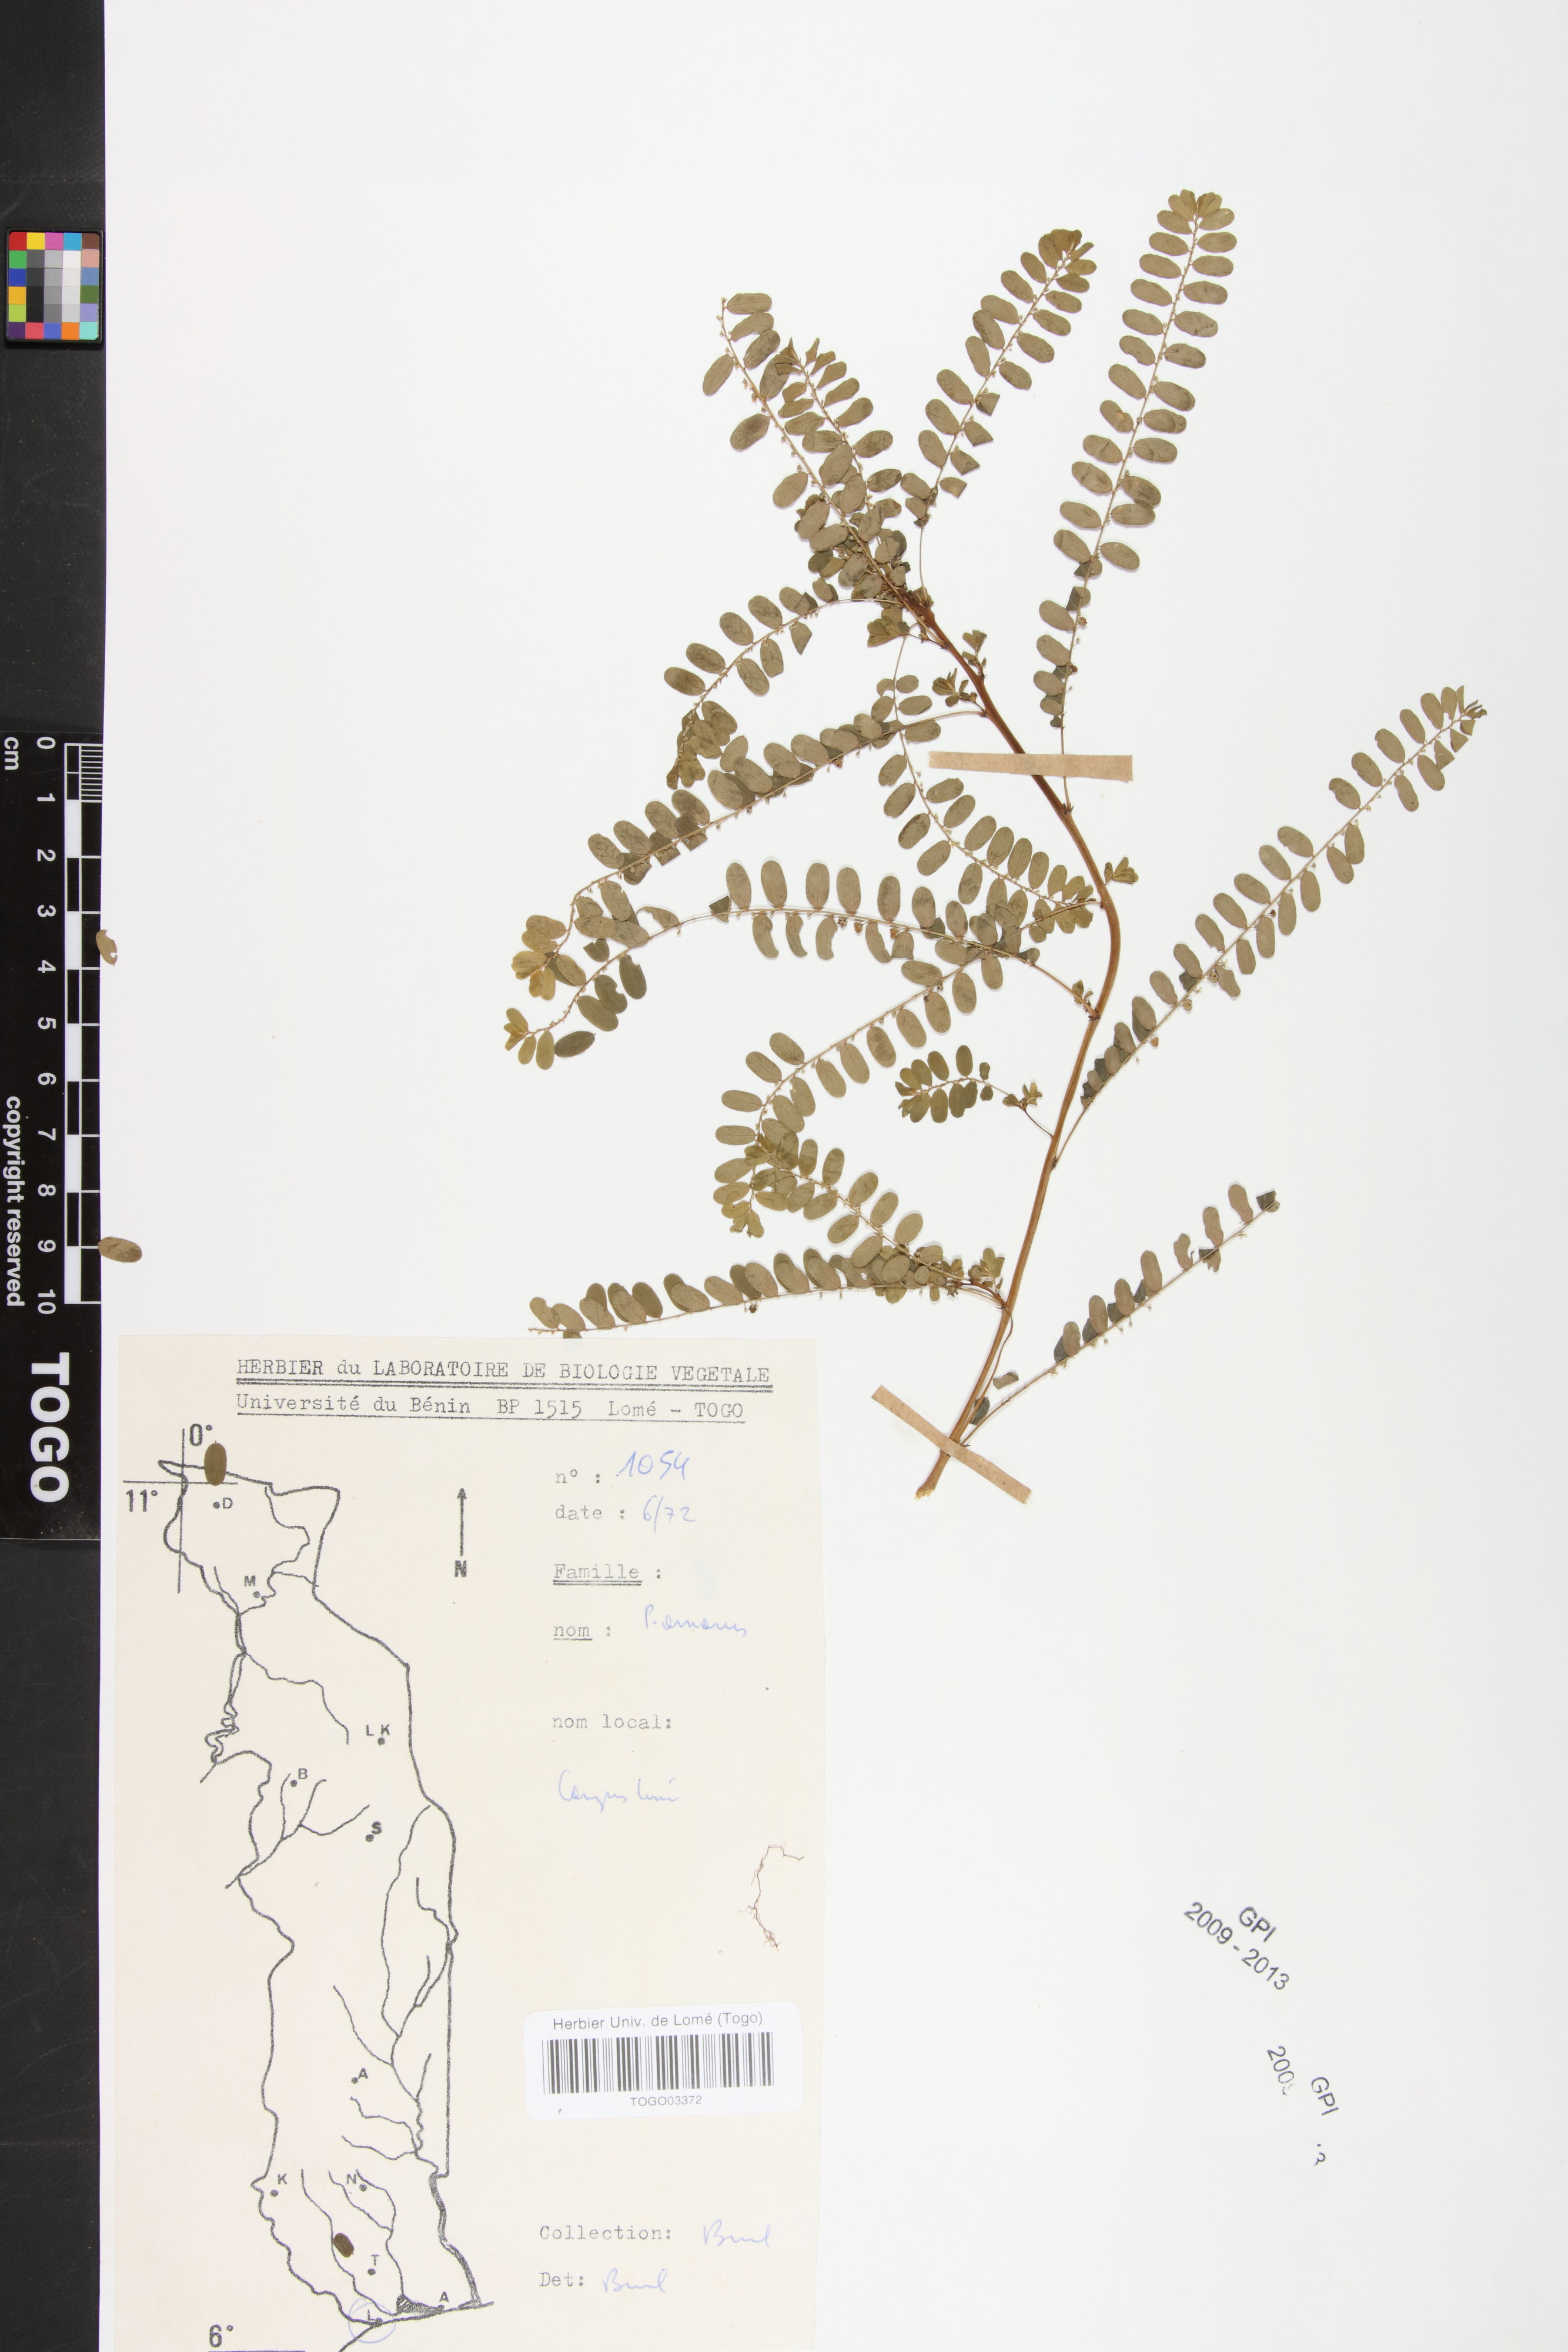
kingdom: Plantae
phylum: Tracheophyta
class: Magnoliopsida
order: Malpighiales
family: Phyllanthaceae
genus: Phyllanthus
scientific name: Phyllanthus amarus
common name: Carry me seed
